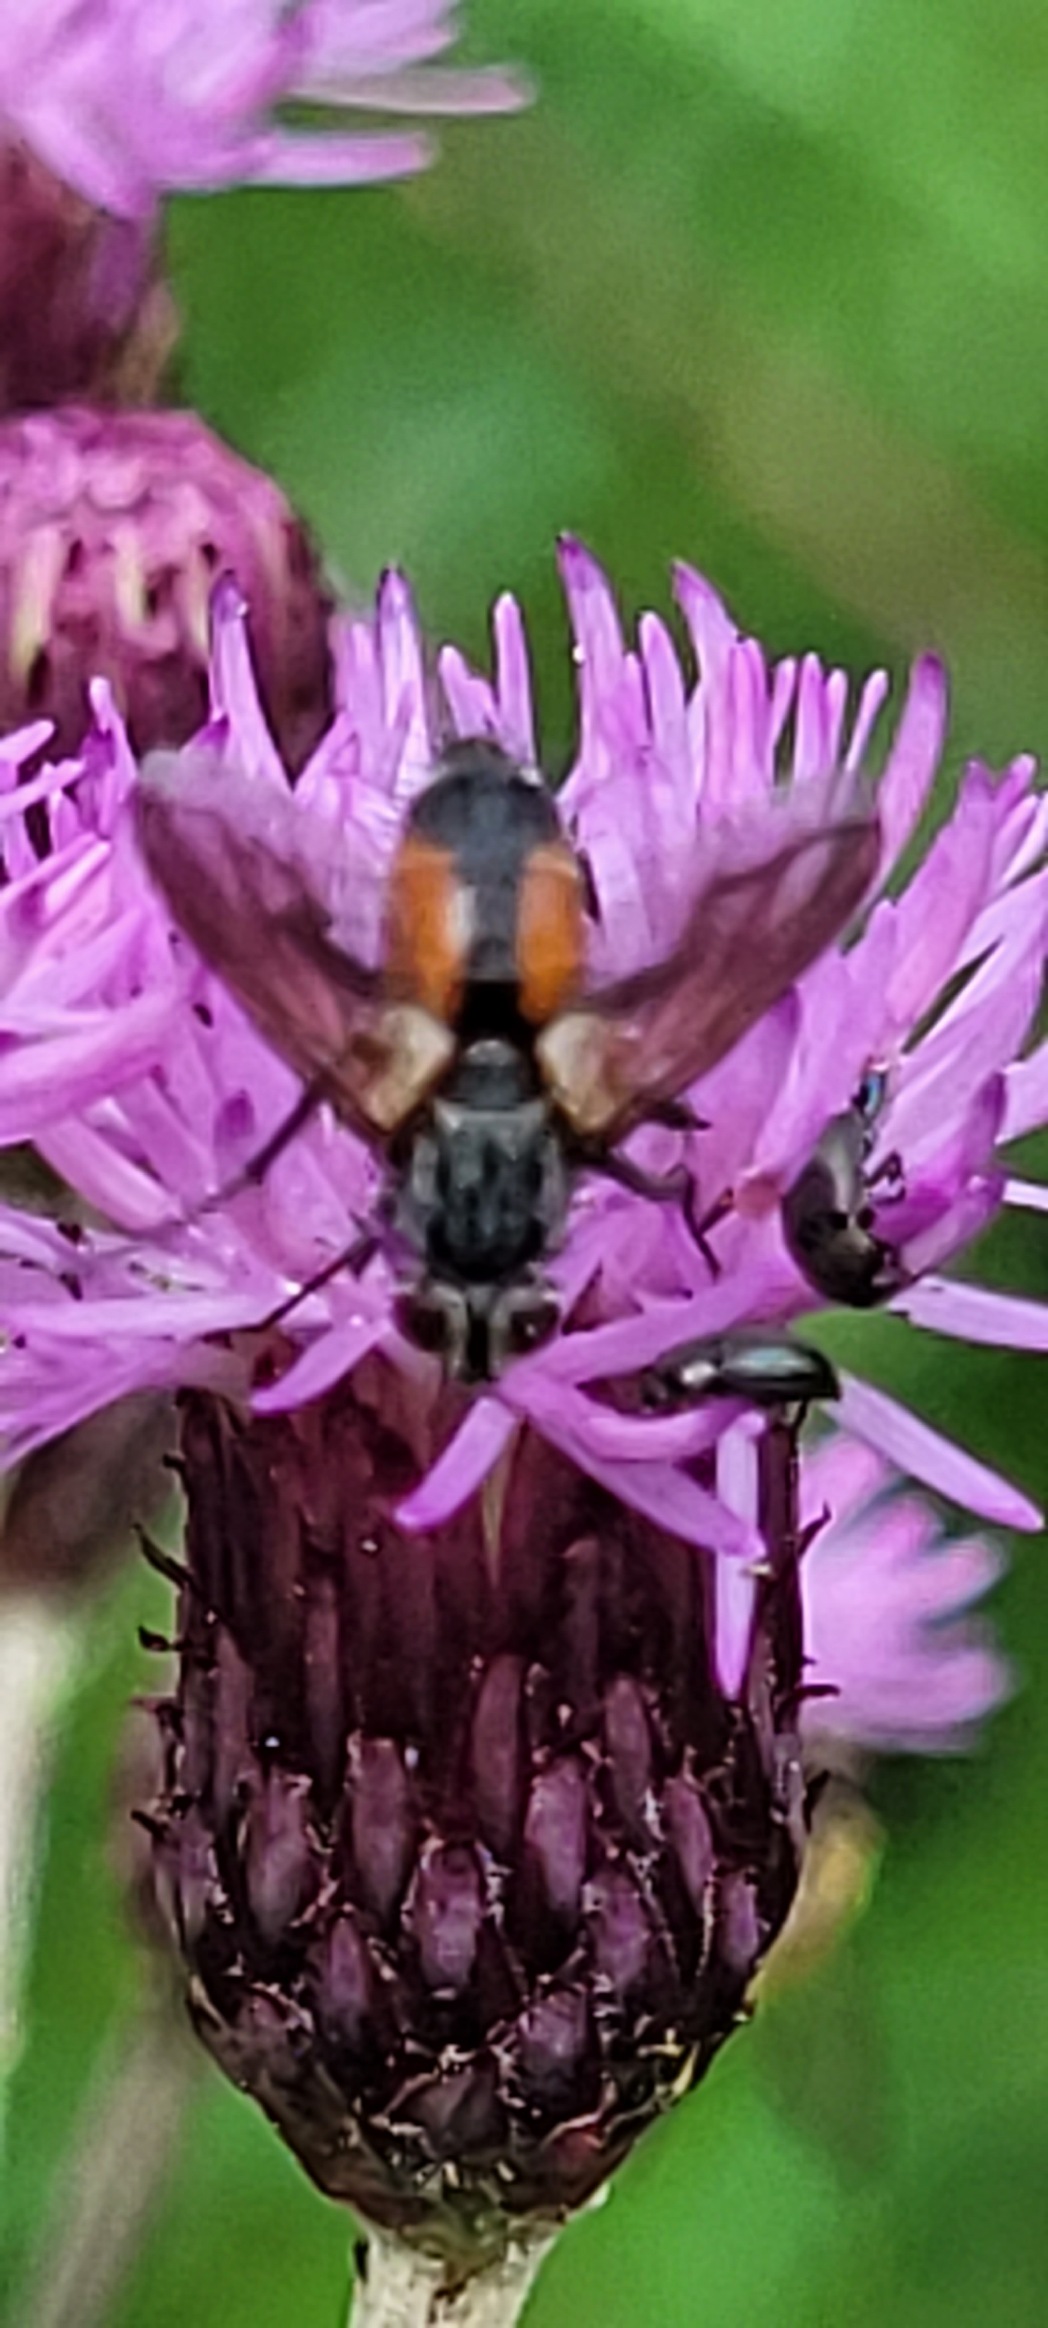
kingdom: Animalia
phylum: Arthropoda
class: Insecta
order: Diptera
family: Tachinidae
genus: Eriothrix
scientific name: Eriothrix rufomaculatus
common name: Rød snylteflue
